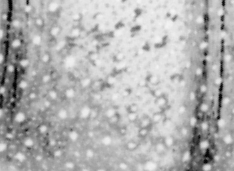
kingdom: Animalia
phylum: Chordata
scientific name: Chordata
